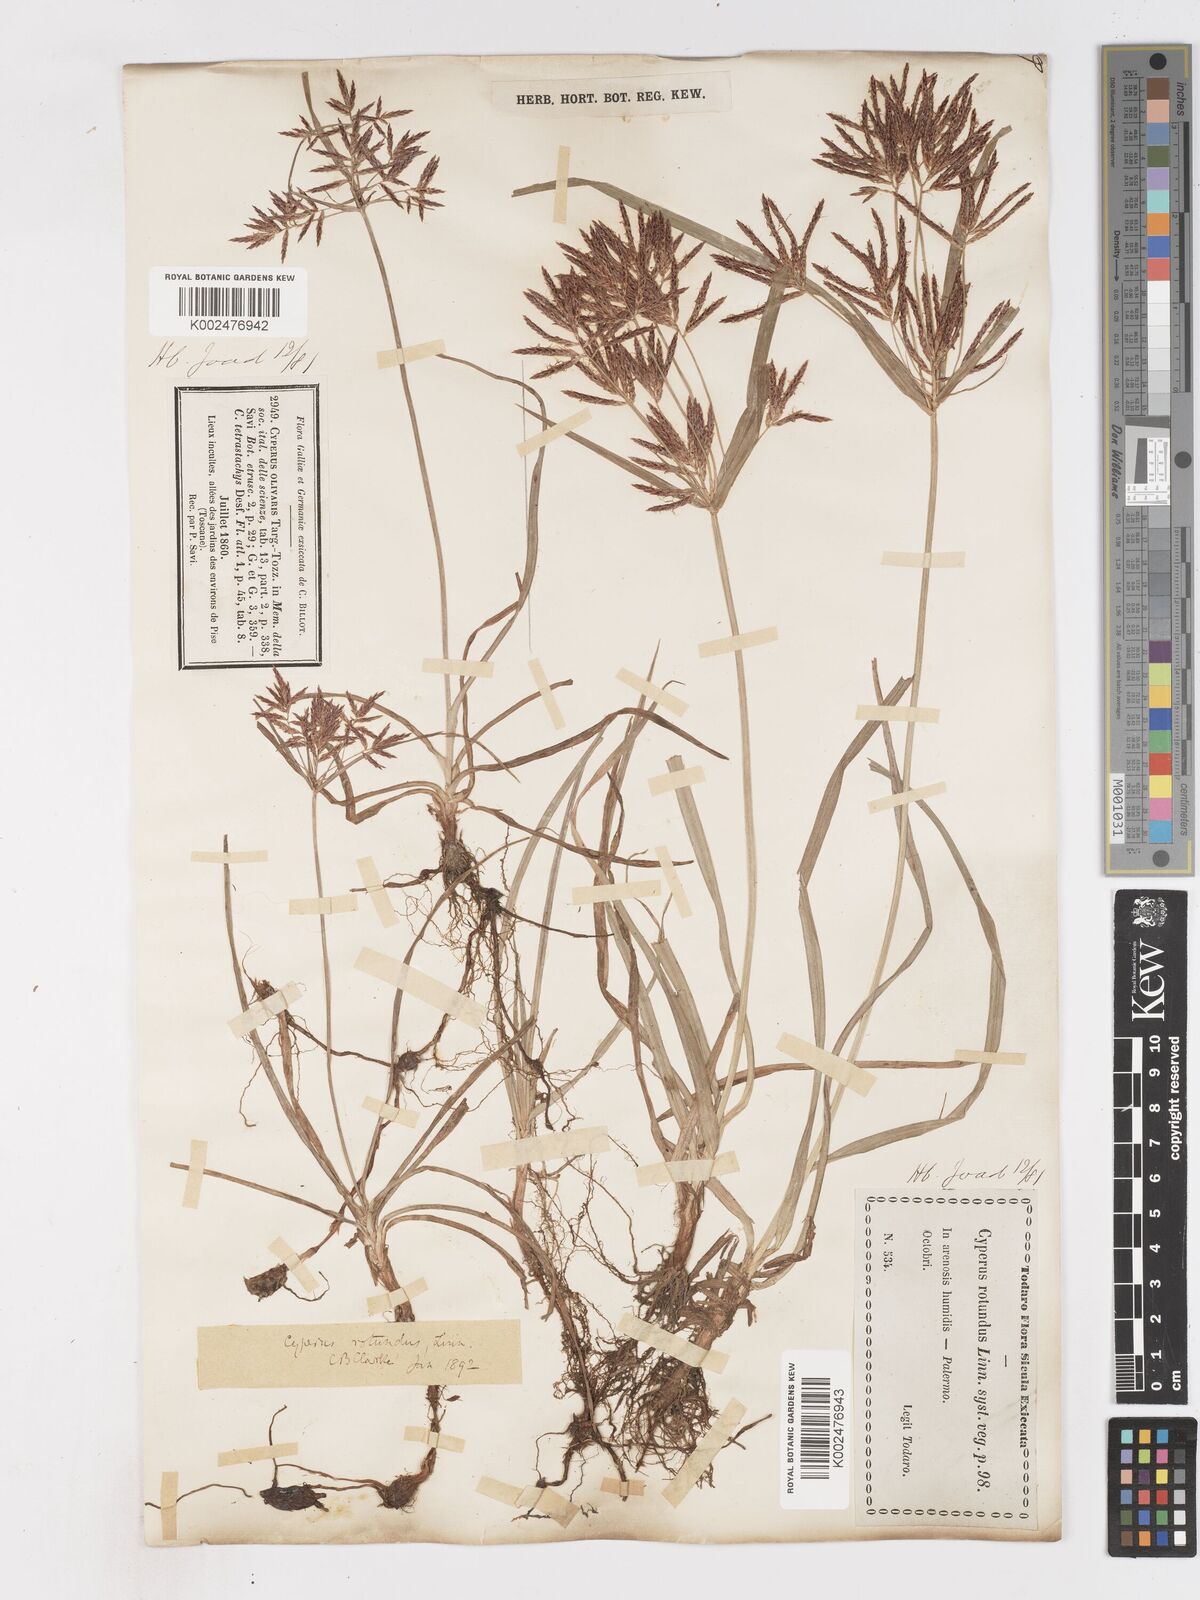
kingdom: Plantae
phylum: Tracheophyta
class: Liliopsida
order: Poales
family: Cyperaceae
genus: Cyperus
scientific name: Cyperus rotundus
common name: Nutgrass
